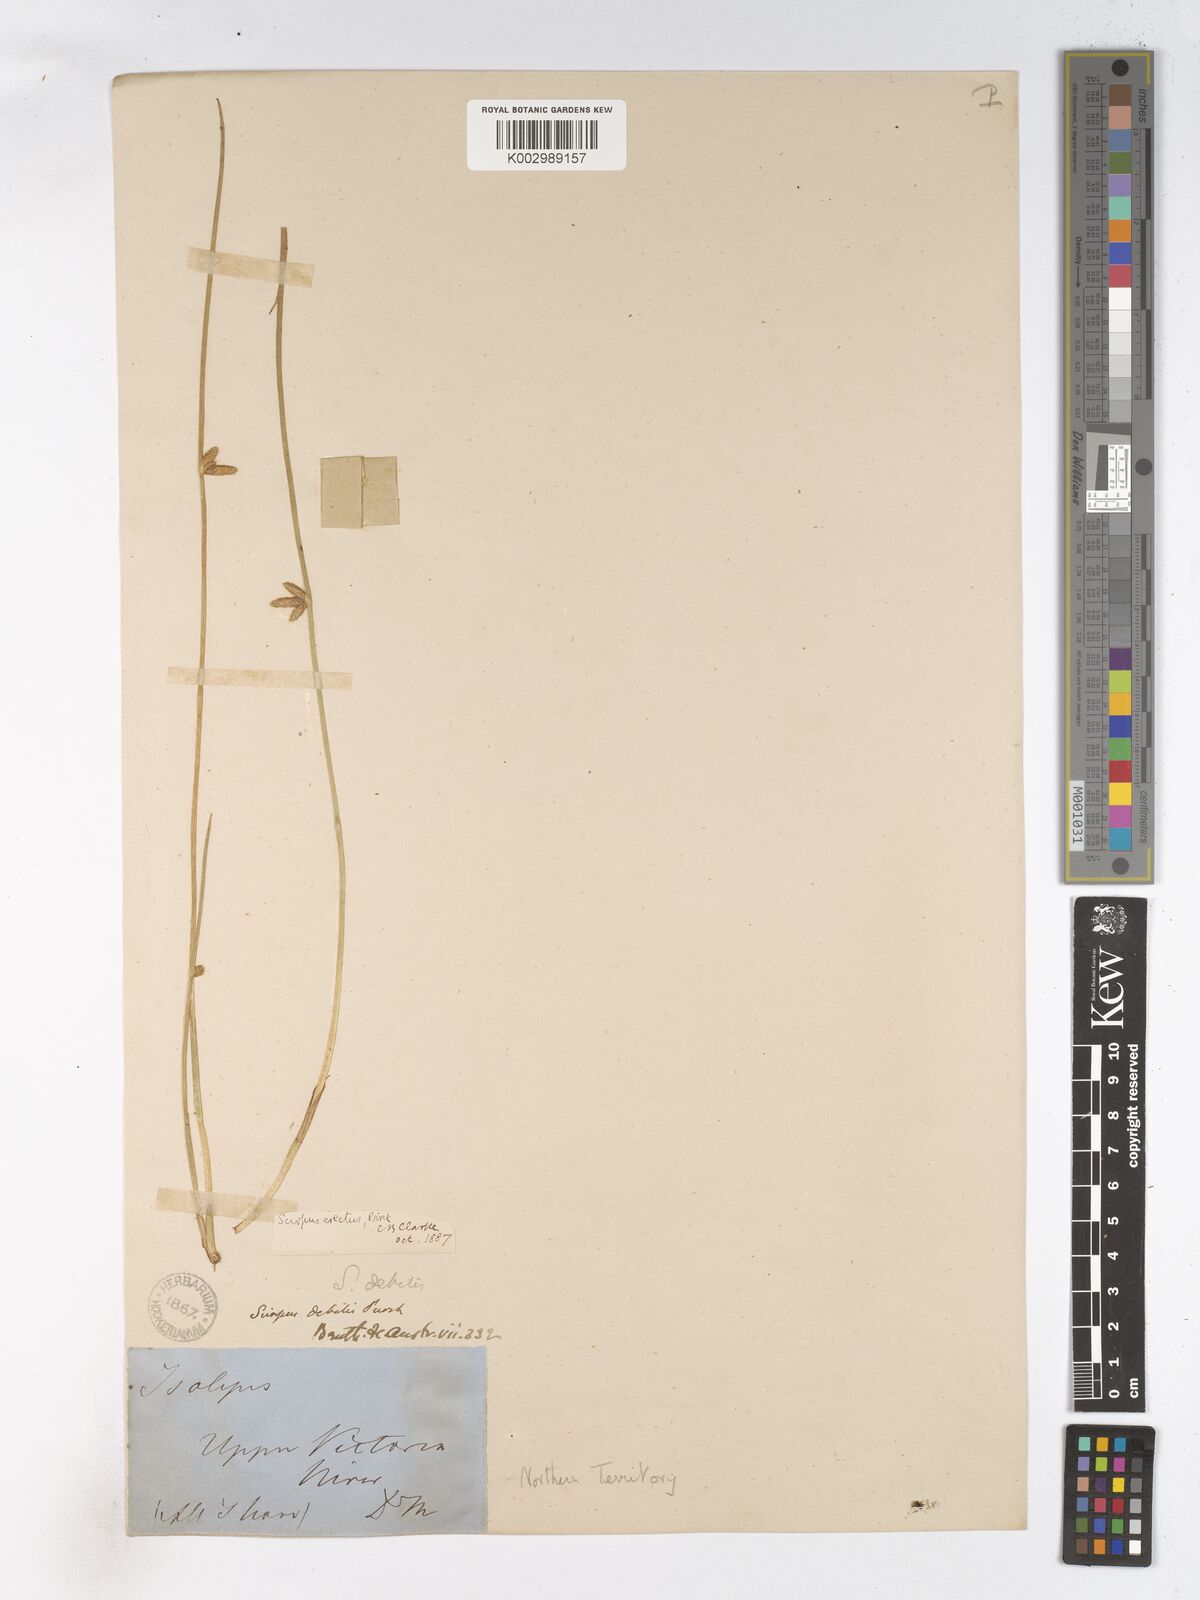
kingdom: Plantae
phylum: Tracheophyta
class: Liliopsida
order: Poales
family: Cyperaceae
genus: Schoenoplectiella
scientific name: Schoenoplectiella juncoides
